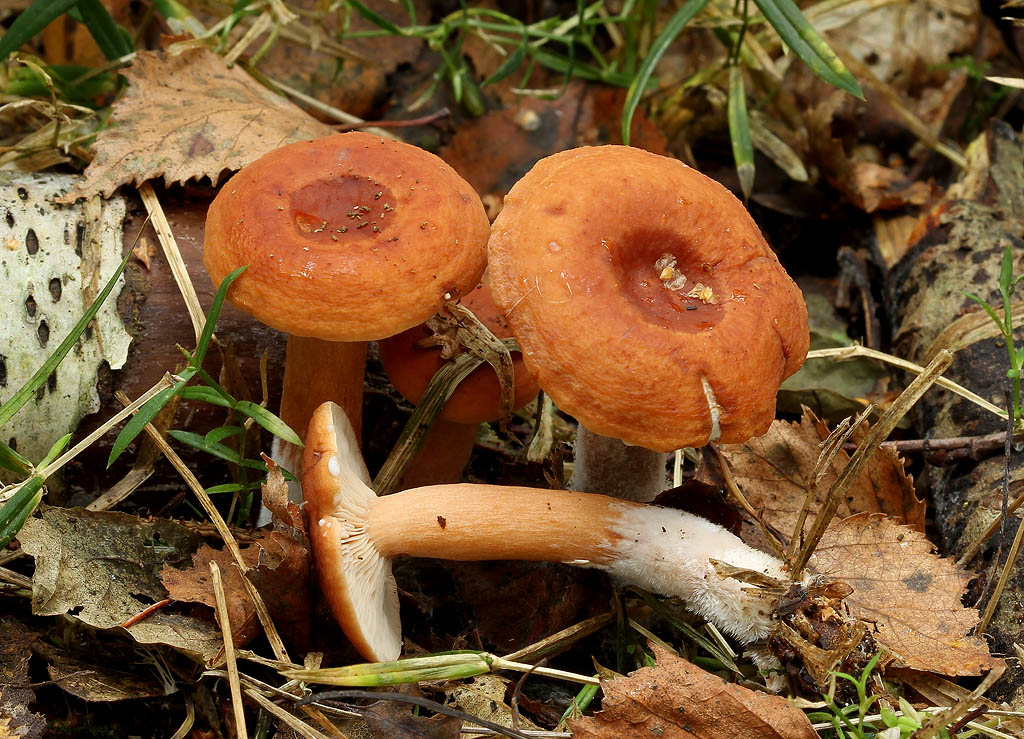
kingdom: Fungi
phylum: Basidiomycota
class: Agaricomycetes
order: Russulales
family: Russulaceae
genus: Lactarius
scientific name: Lactarius fulvissimus
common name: ræve-mælkehat
